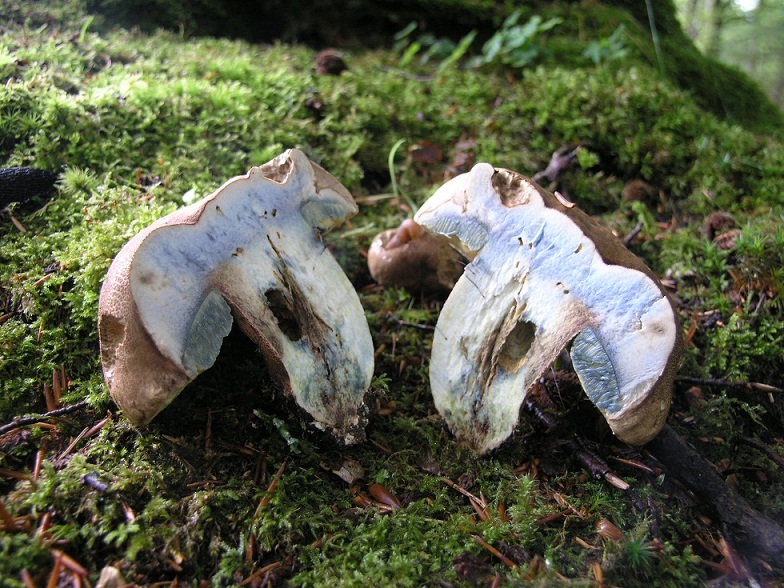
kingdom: Fungi
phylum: Basidiomycota
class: Agaricomycetes
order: Boletales
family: Boletaceae
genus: Caloboletus
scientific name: Caloboletus calopus
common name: skønfodet rørhat
